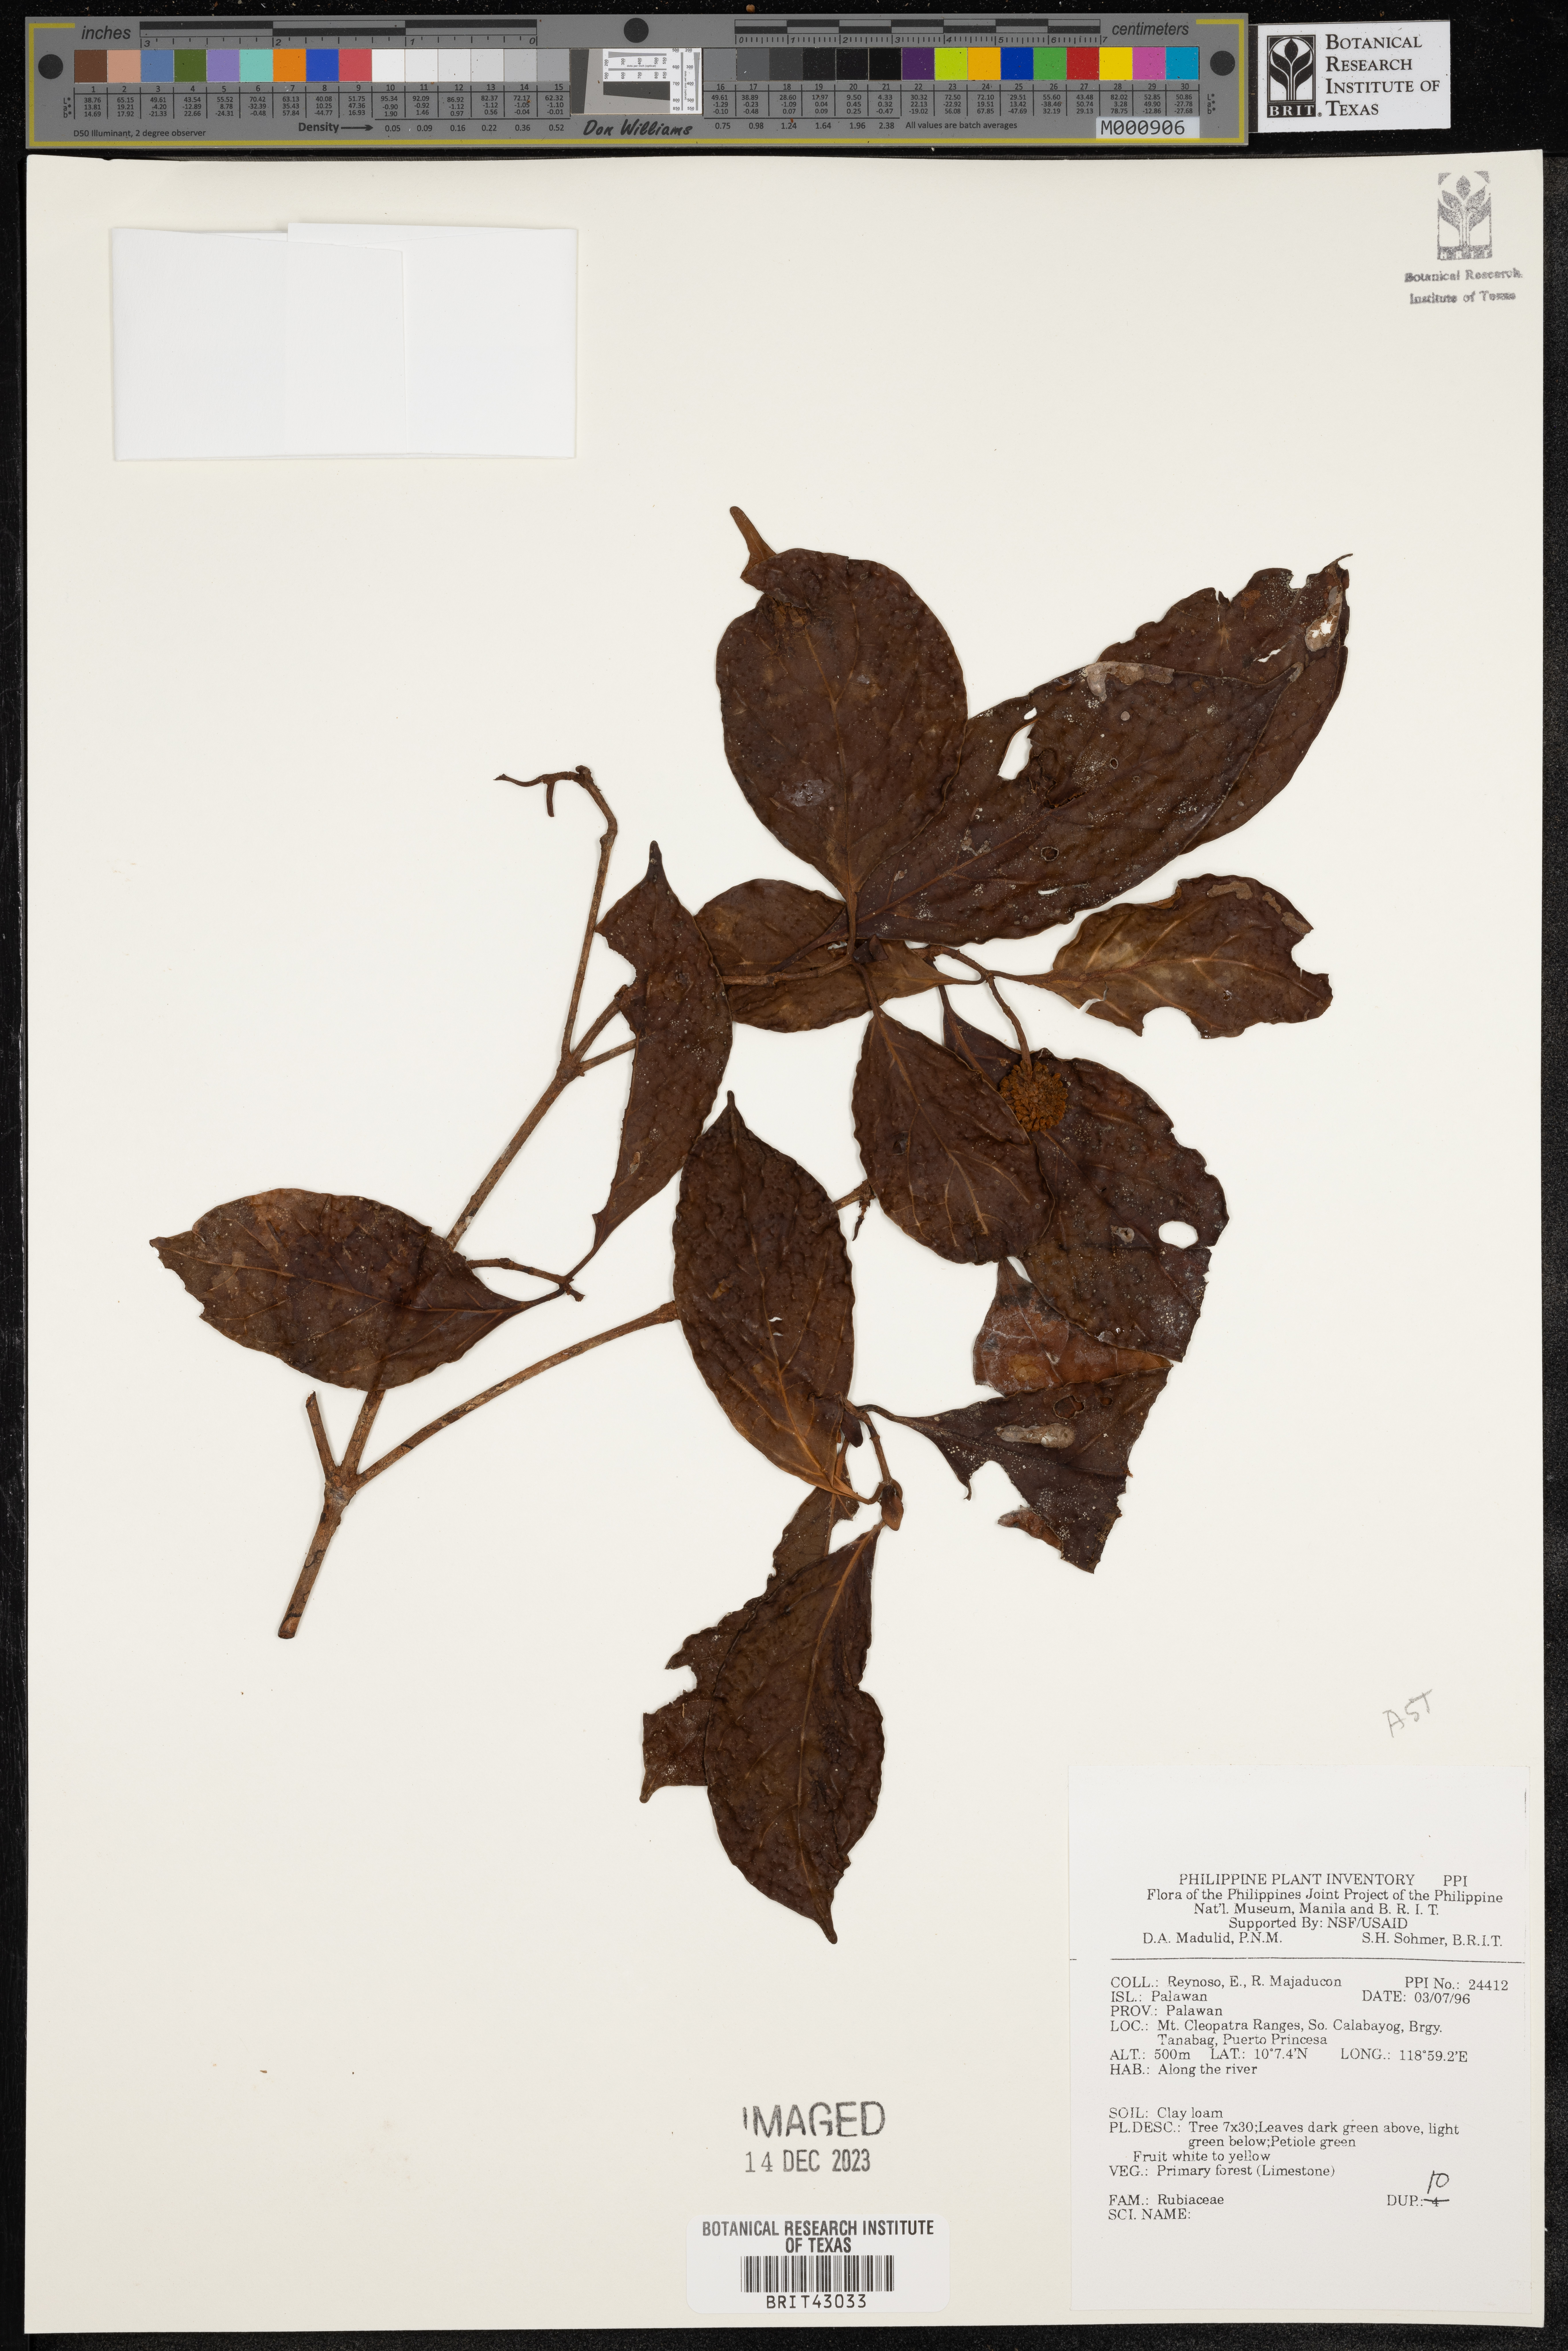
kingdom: Plantae
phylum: Tracheophyta
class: Magnoliopsida
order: Gentianales
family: Rubiaceae
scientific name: Rubiaceae
